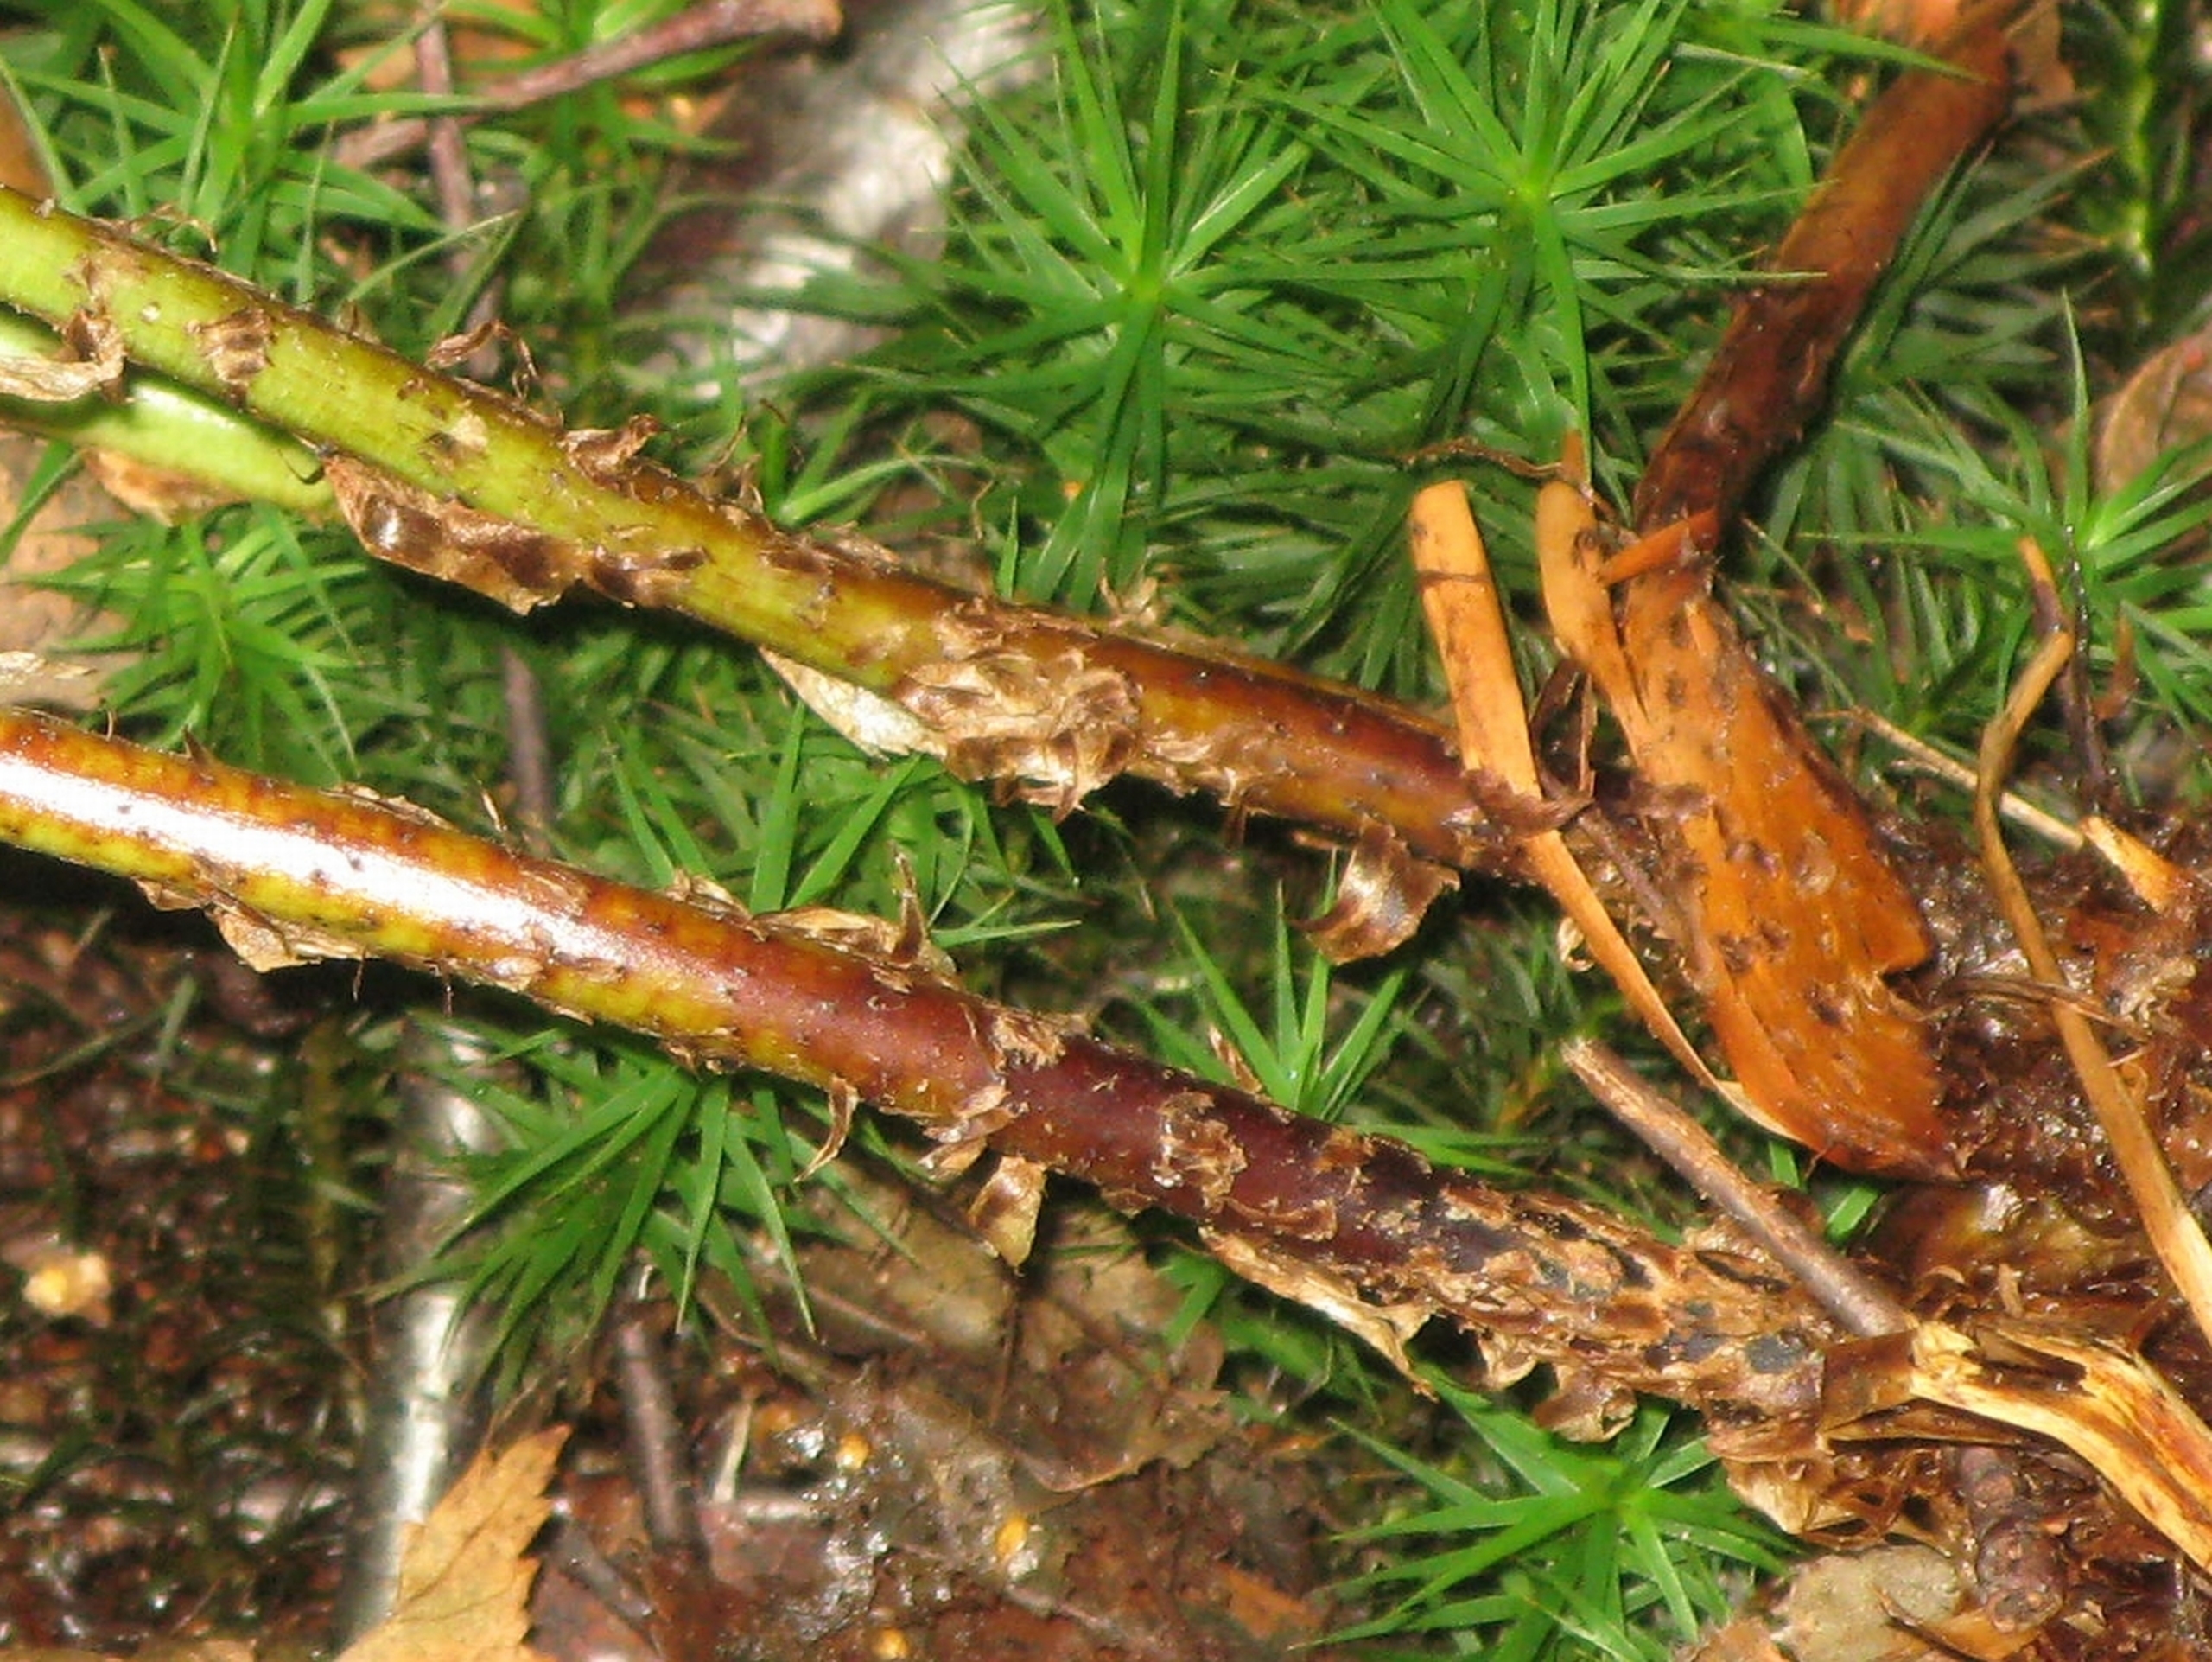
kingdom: Plantae
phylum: Tracheophyta
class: Polypodiopsida
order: Polypodiales
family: Dryopteridaceae
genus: Dryopteris
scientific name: Dryopteris expansa
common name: Finbladet mangeløv
